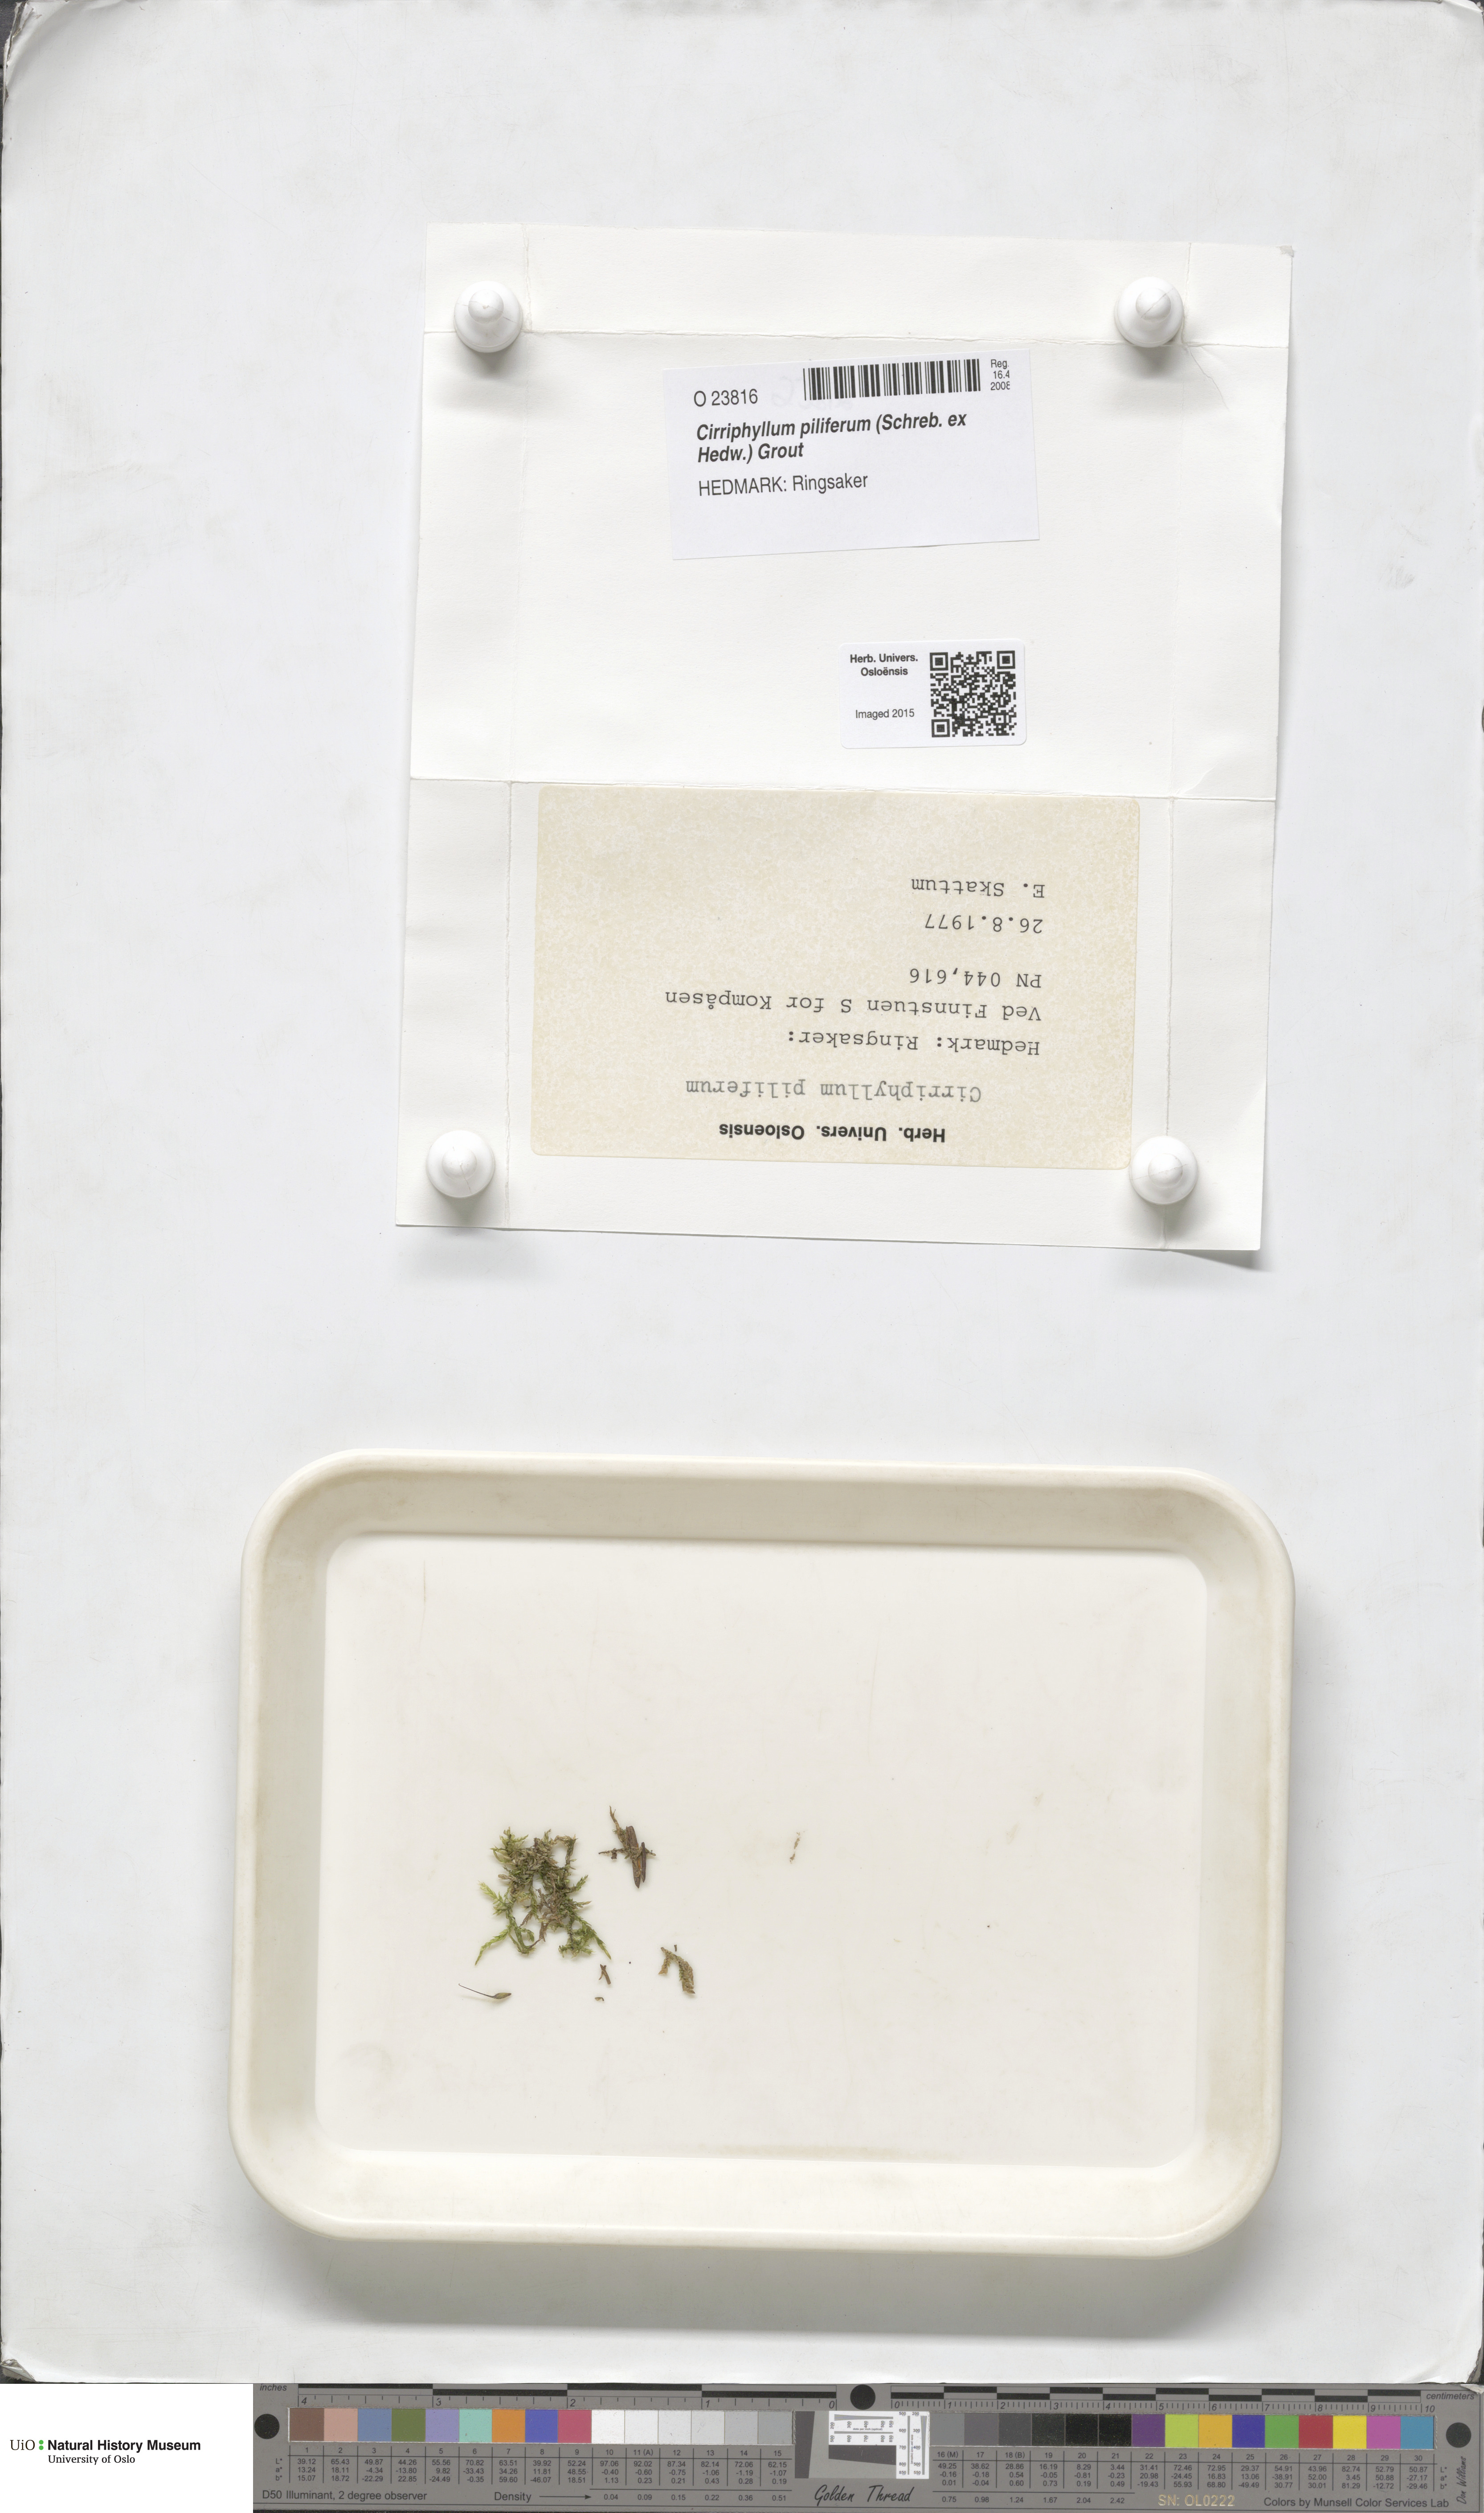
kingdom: Plantae
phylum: Bryophyta
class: Bryopsida
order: Hypnales
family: Brachytheciaceae
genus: Cirriphyllum
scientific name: Cirriphyllum piliferum
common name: Hair-pointed moss
